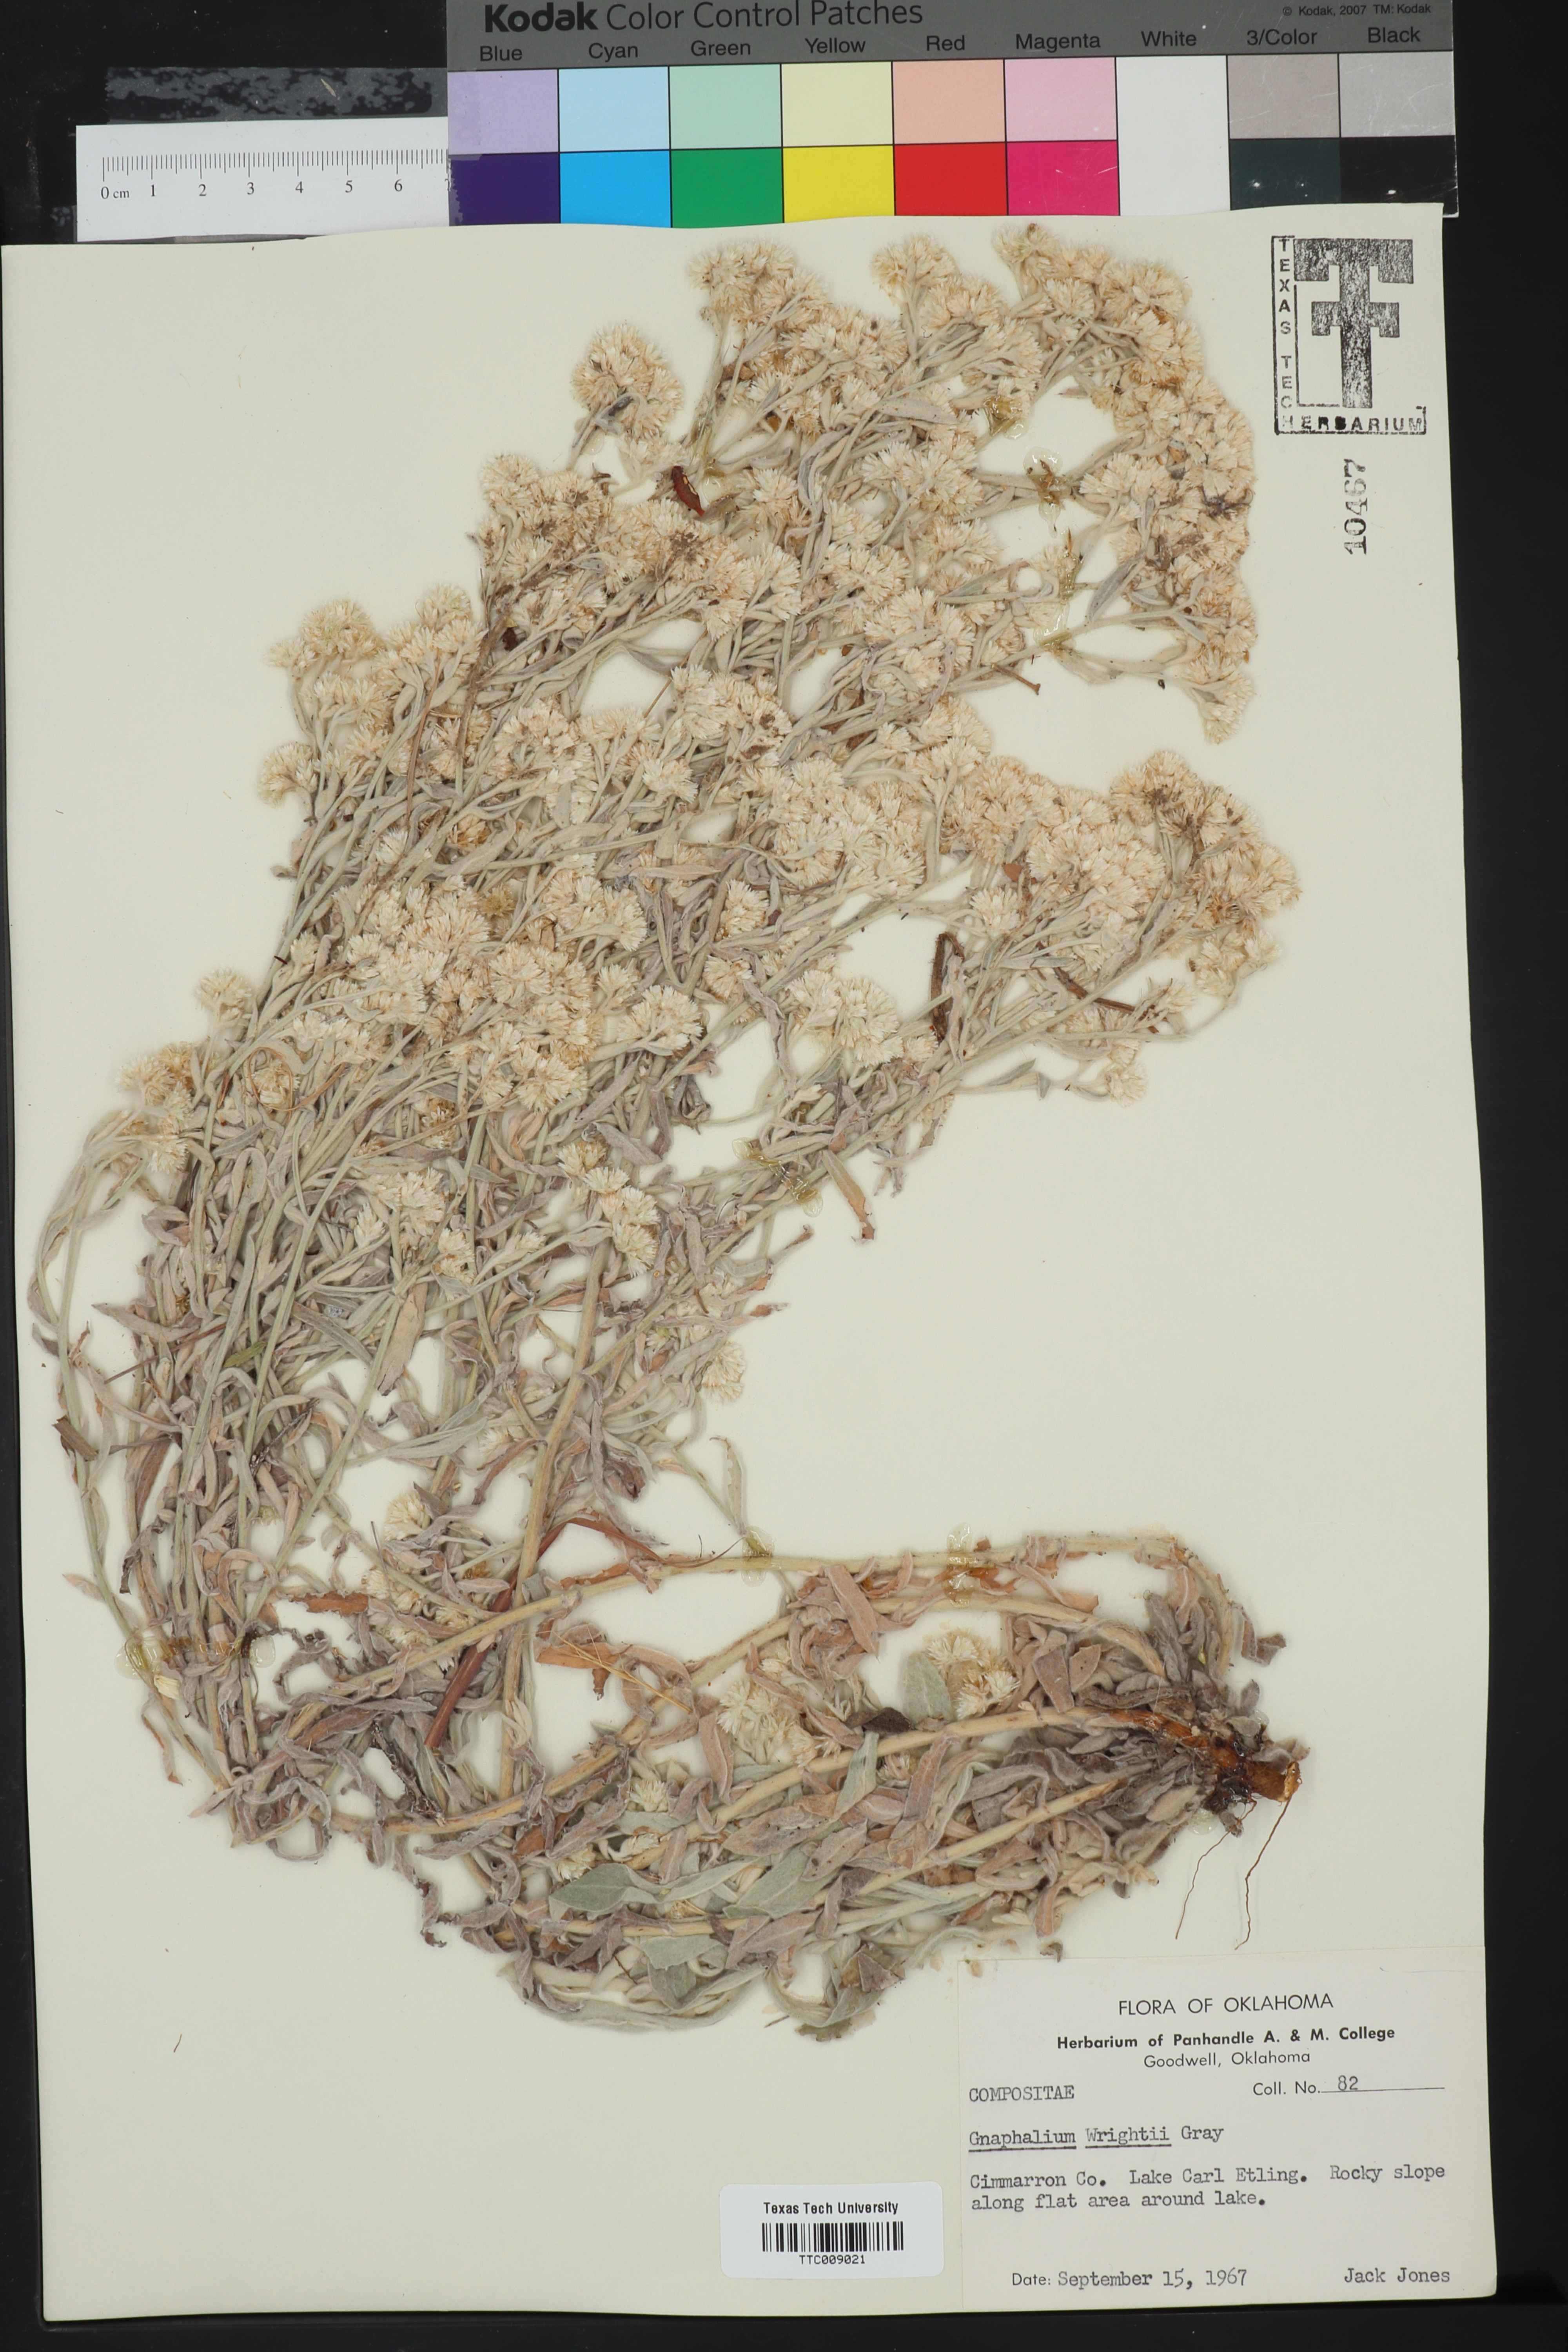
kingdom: Plantae
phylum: Tracheophyta
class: Magnoliopsida
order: Asterales
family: Asteraceae
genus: Pseudognaphalium
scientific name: Pseudognaphalium canescens
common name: Wright's rabbit-tobacco
